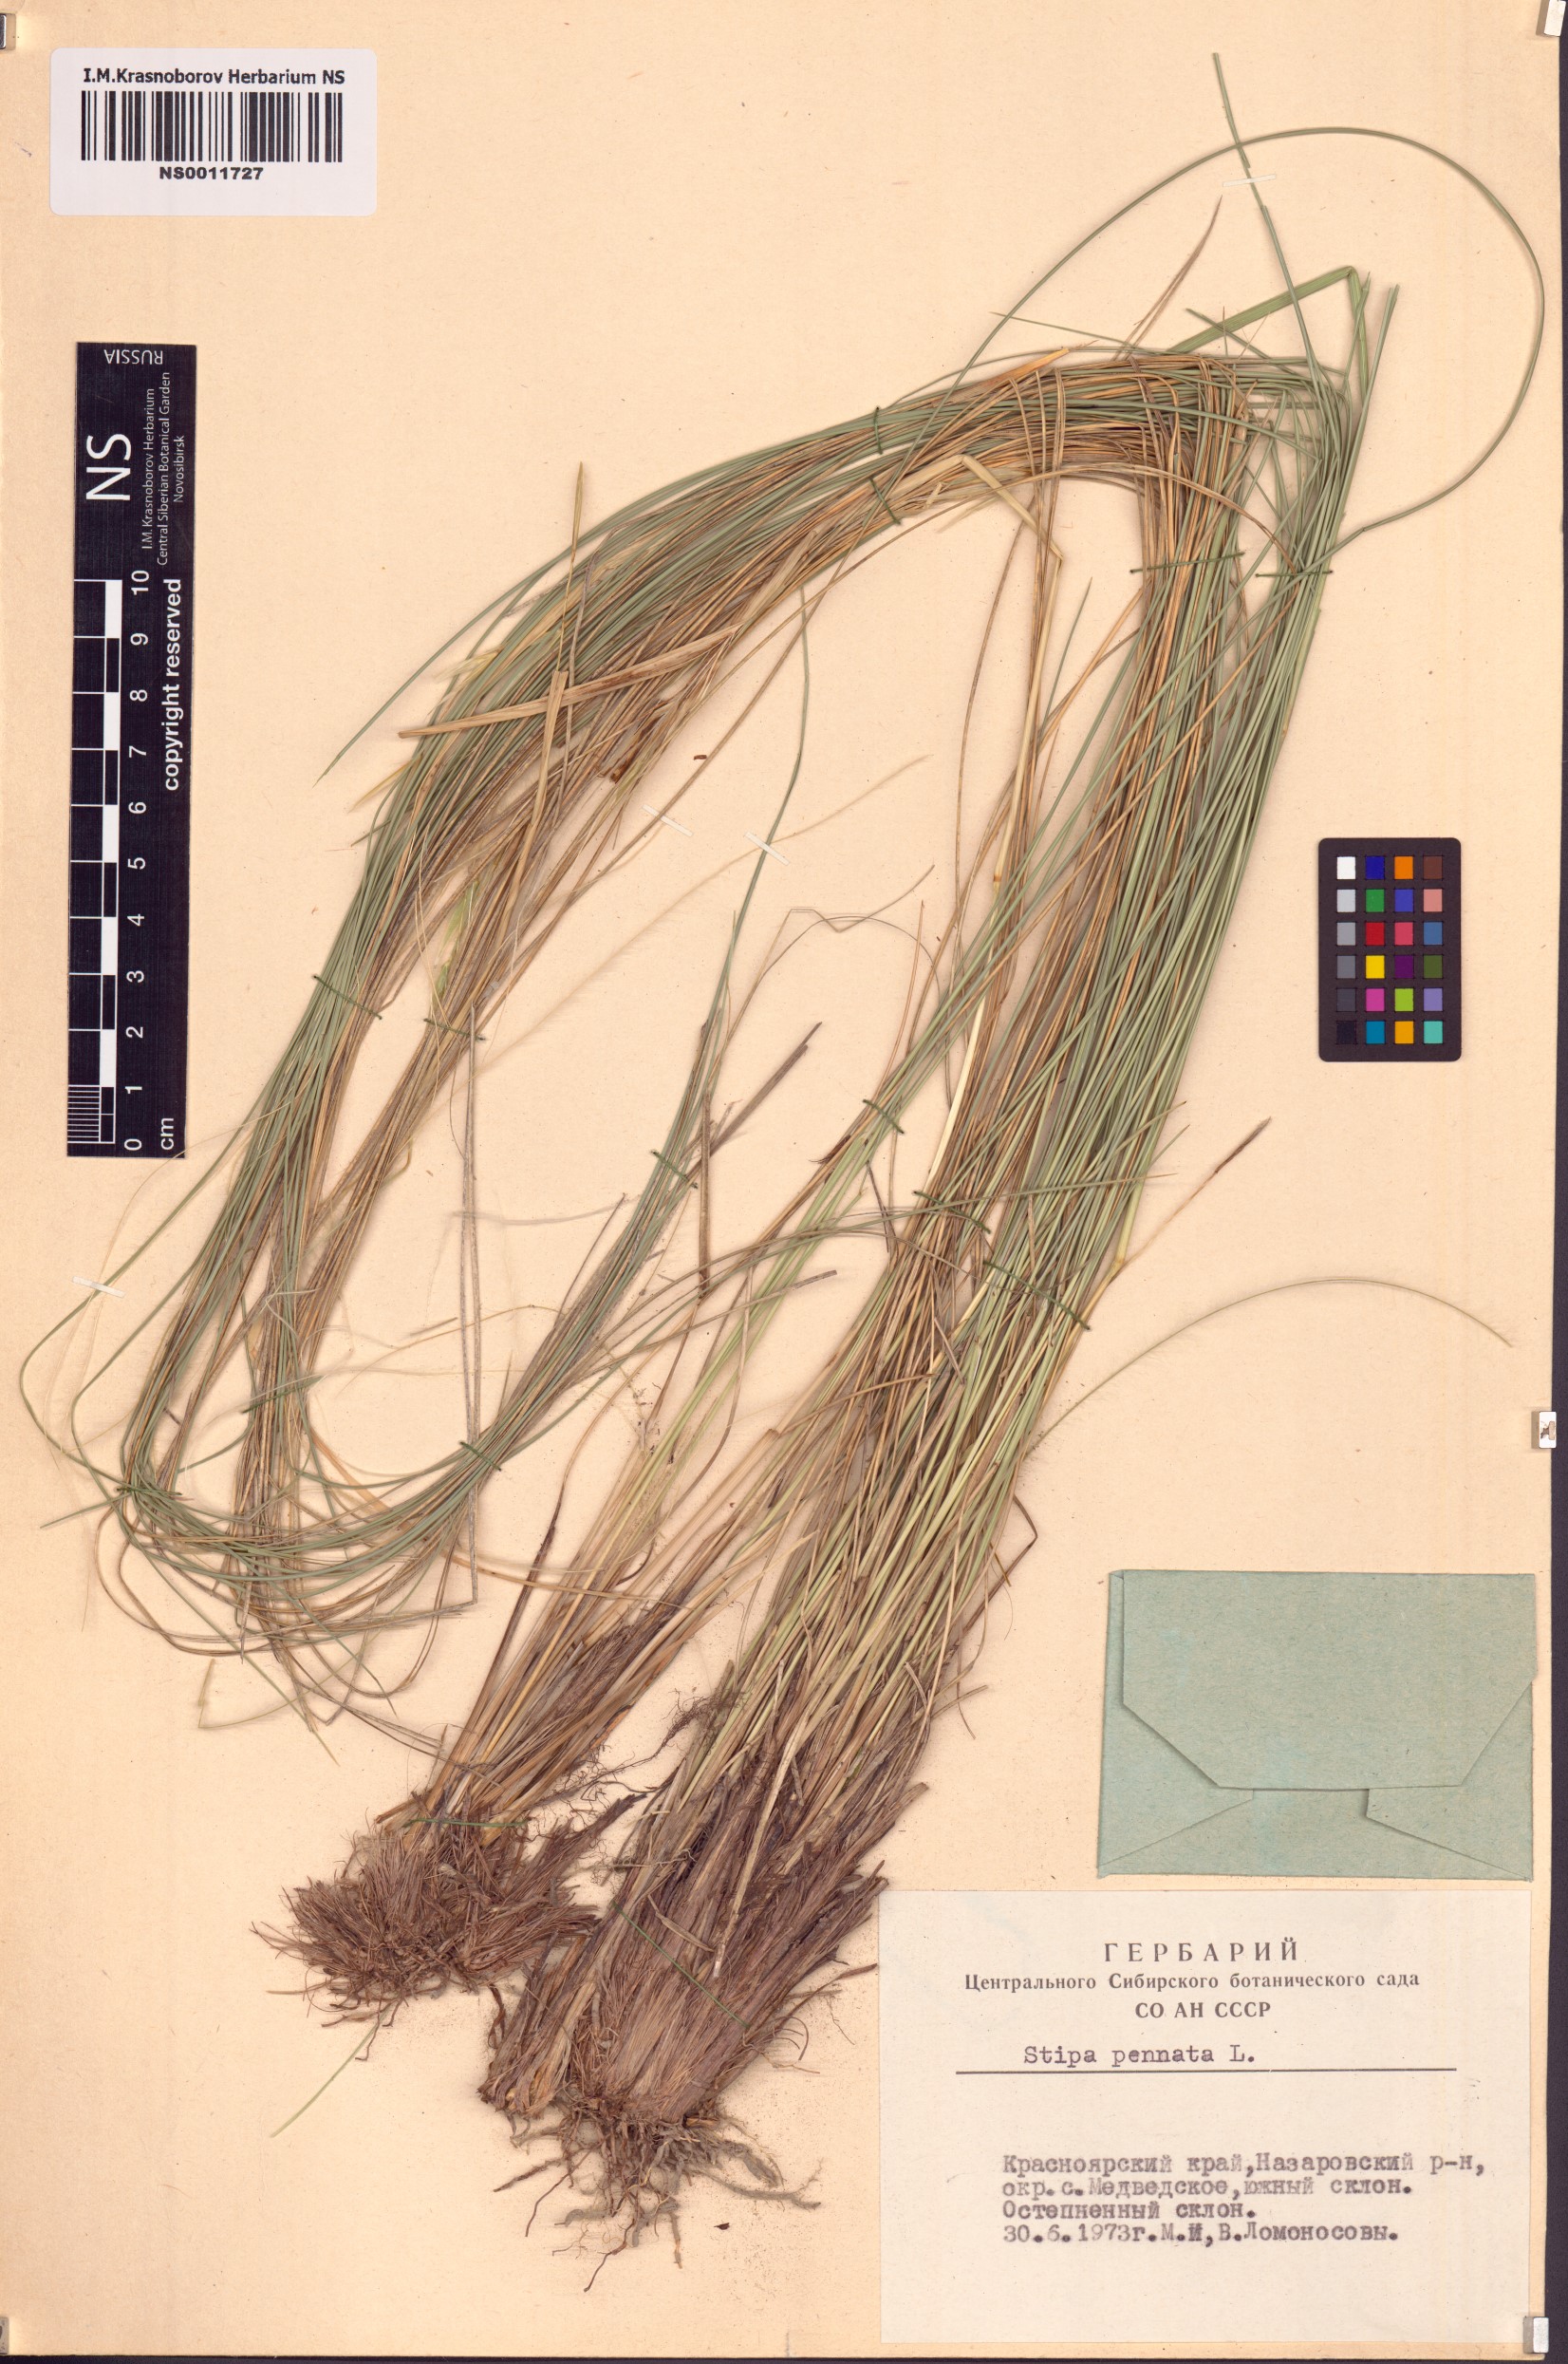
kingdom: Plantae
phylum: Tracheophyta
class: Liliopsida
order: Poales
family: Poaceae
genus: Stipa
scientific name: Stipa pennata
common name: European feather grass
